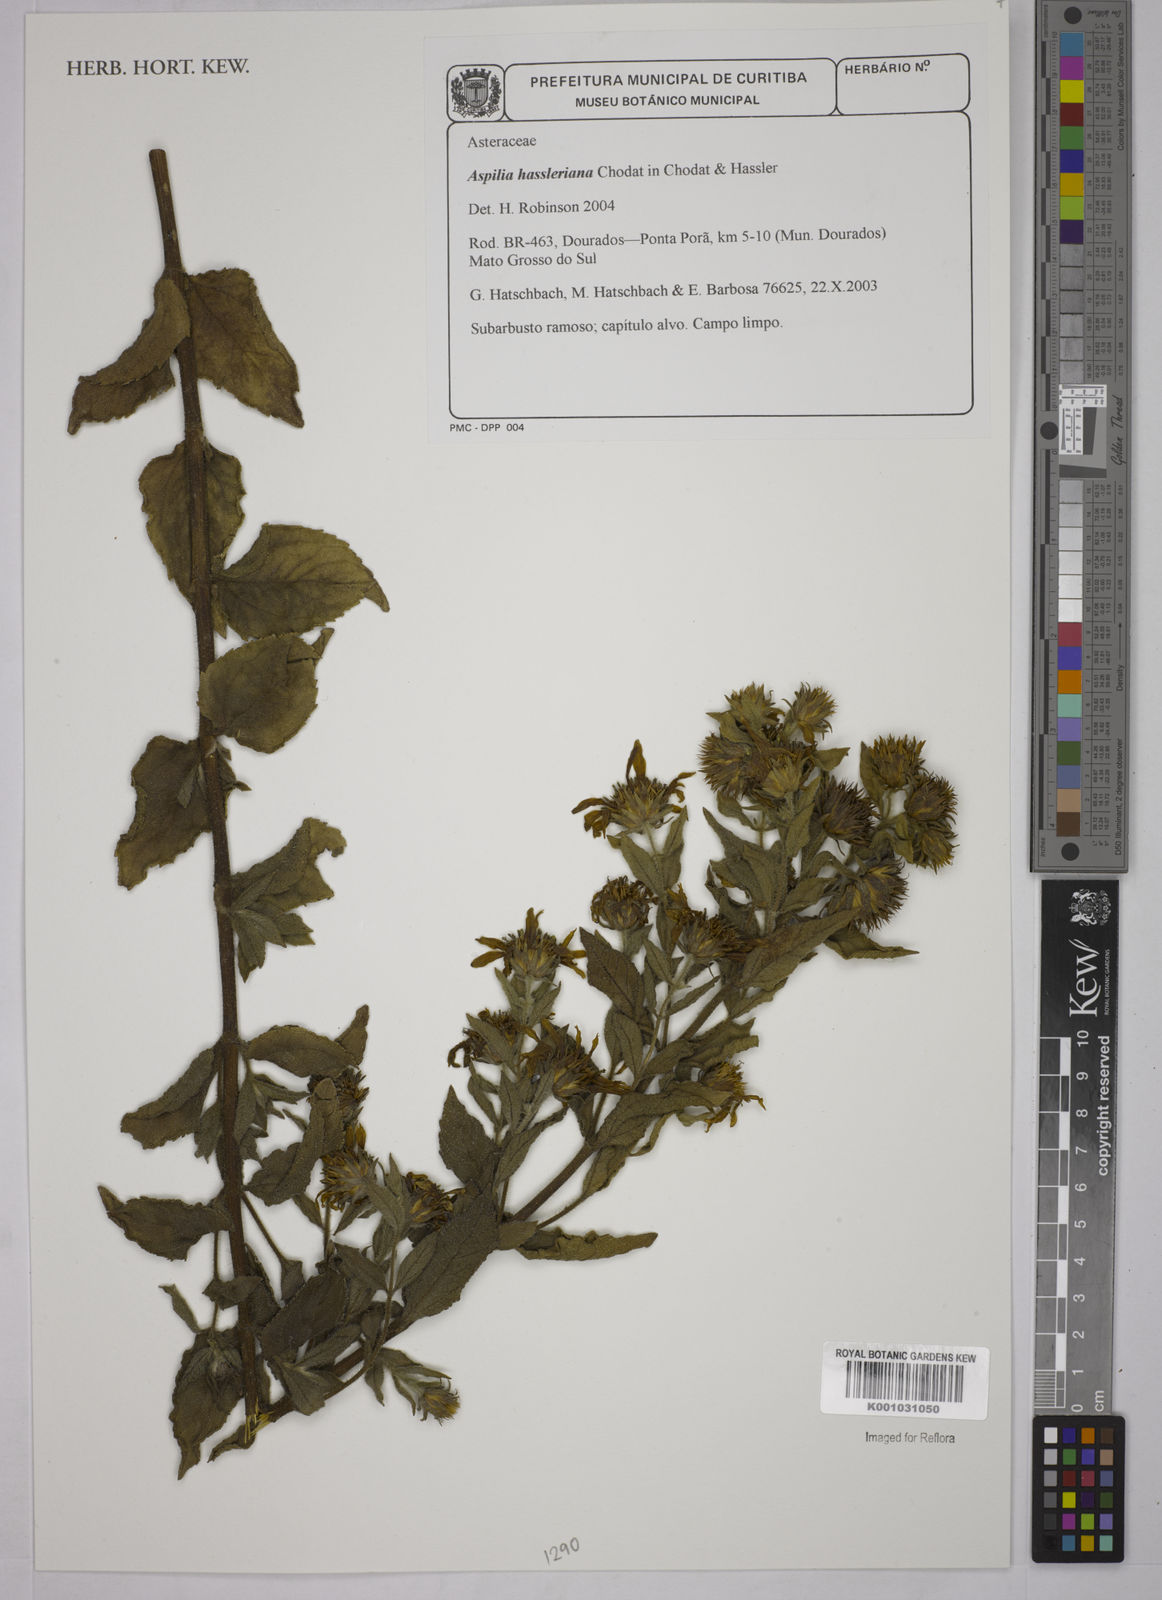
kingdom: Plantae
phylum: Tracheophyta
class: Magnoliopsida
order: Asterales
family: Asteraceae
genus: Wedelia
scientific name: Wedelia hassleriana
